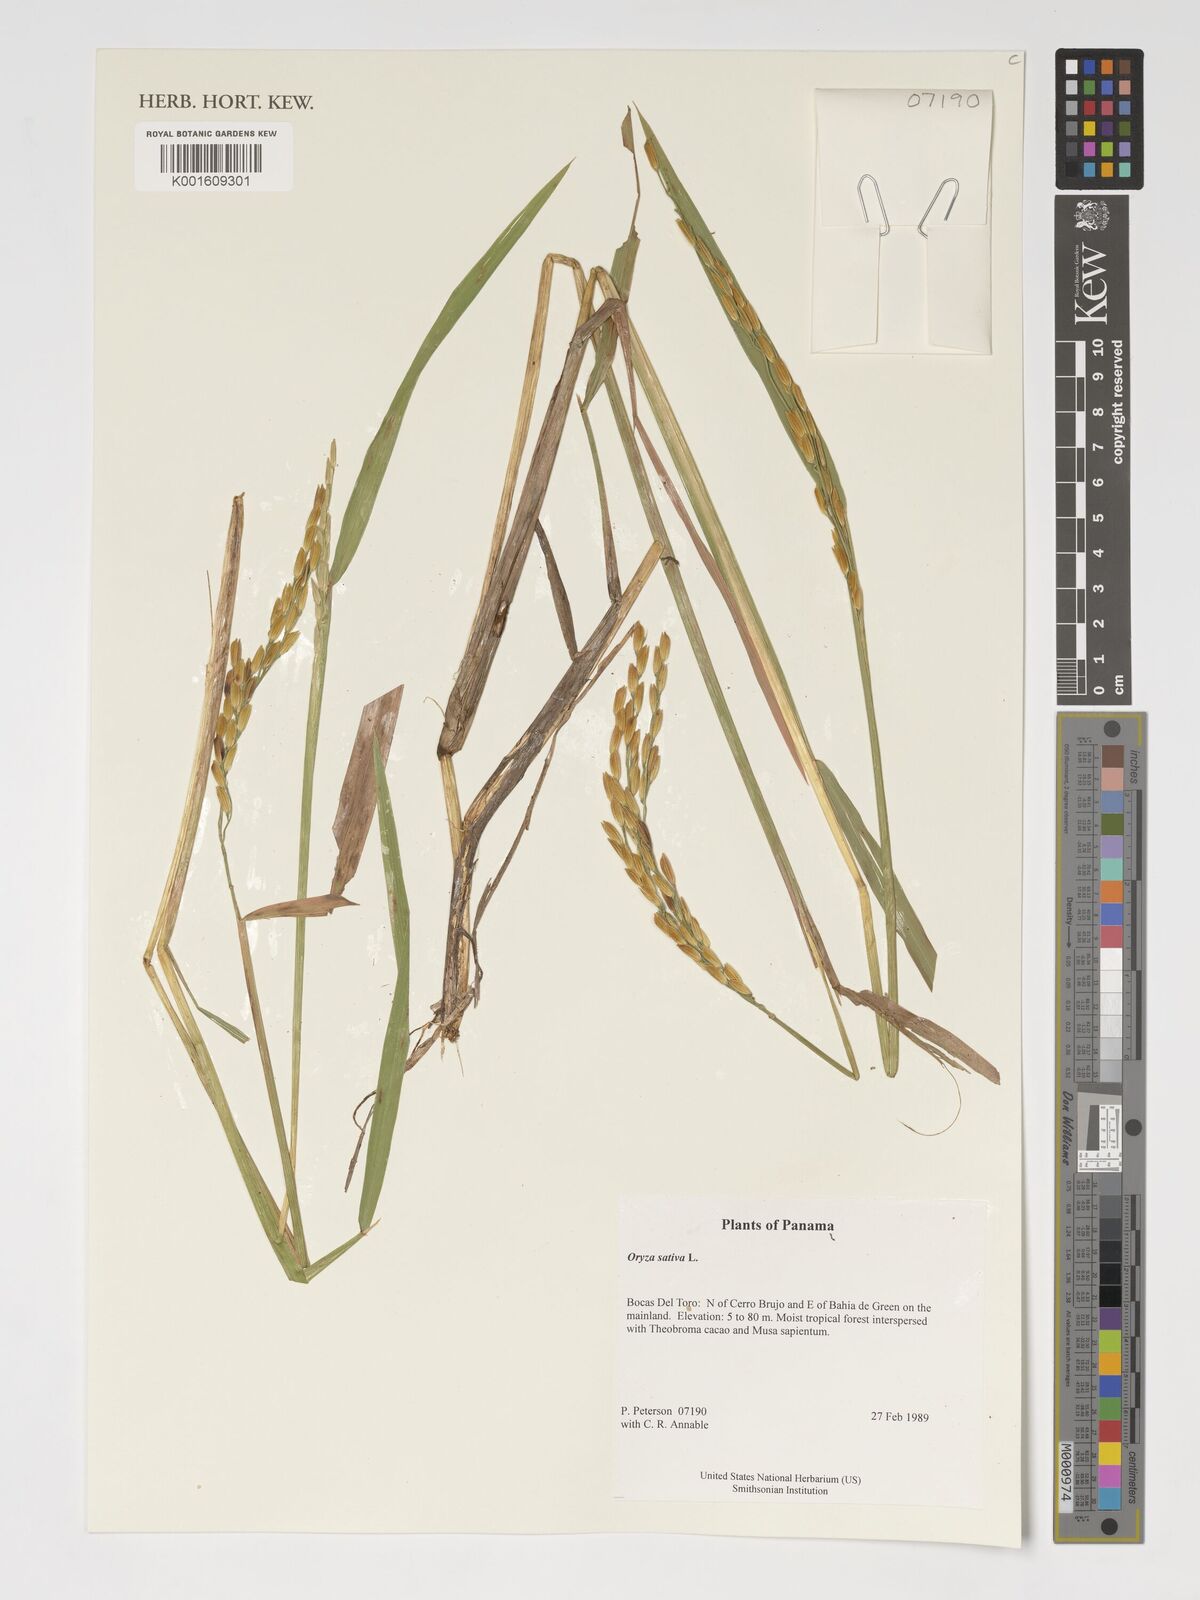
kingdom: Plantae
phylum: Tracheophyta
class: Liliopsida
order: Poales
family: Poaceae
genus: Oryza
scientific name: Oryza sativa
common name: Rice
